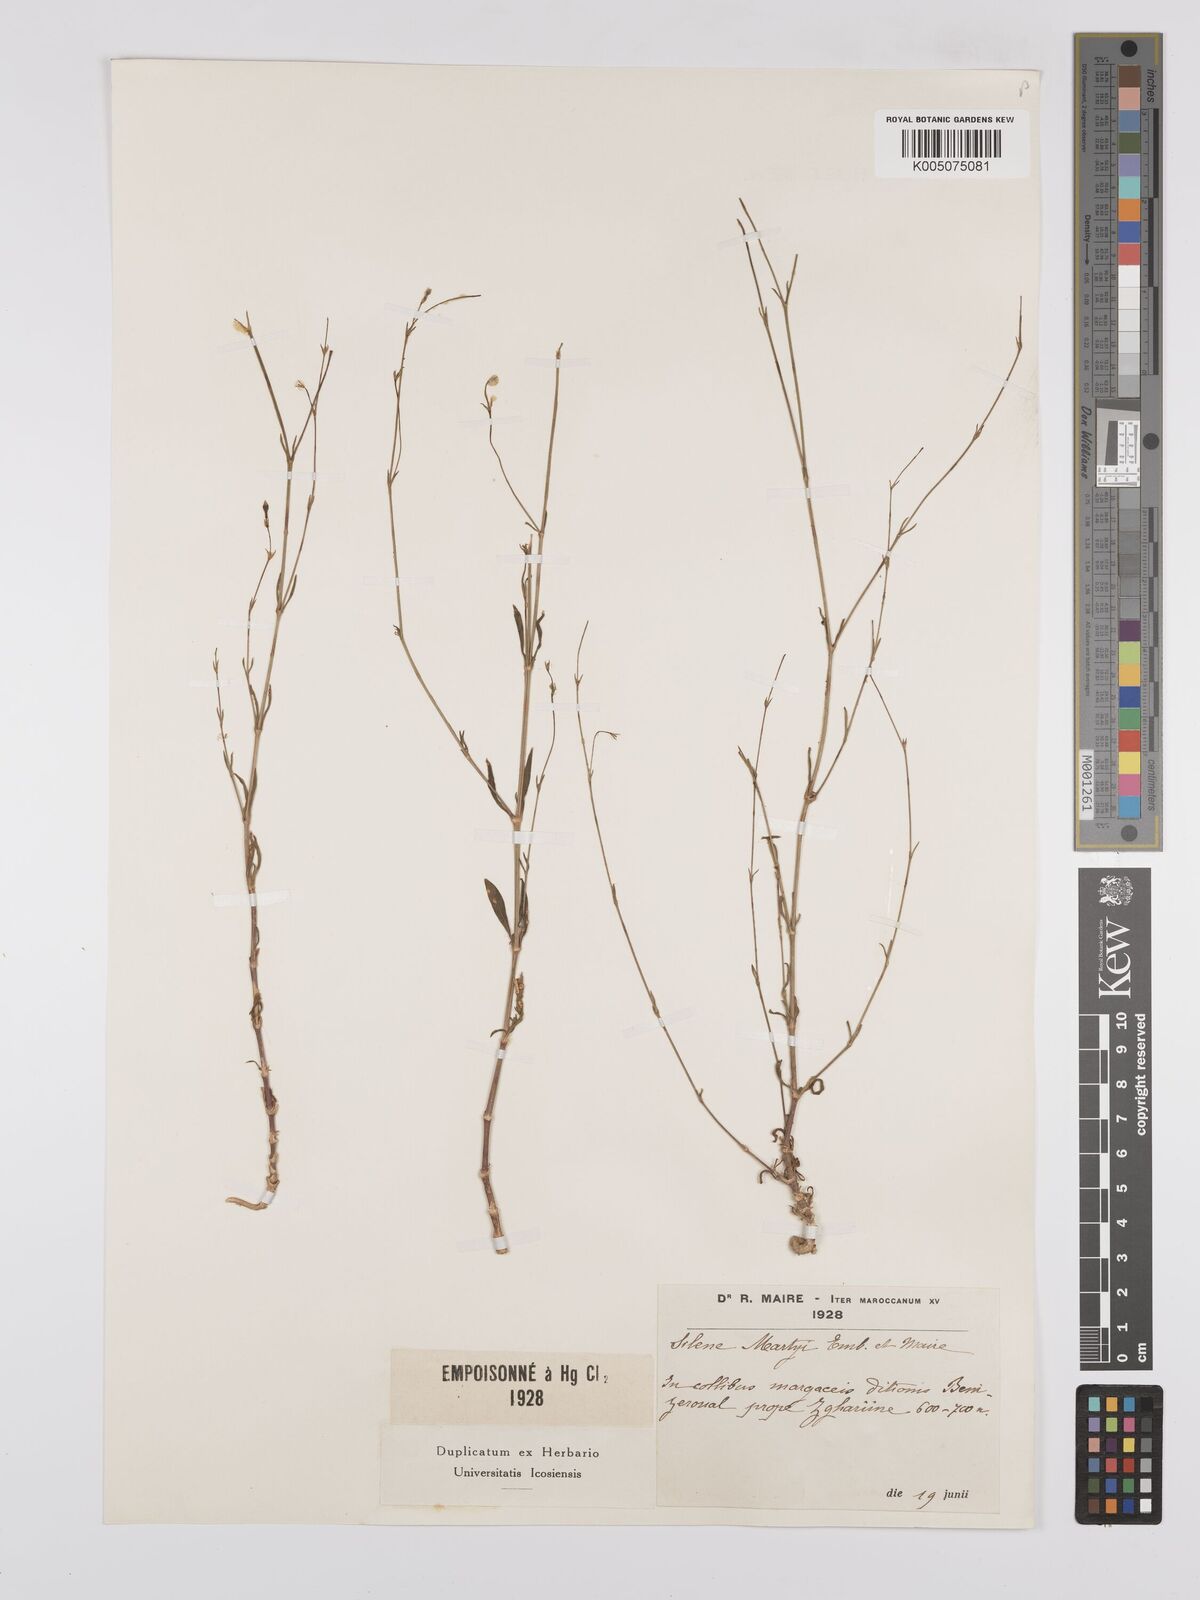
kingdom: Plantae
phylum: Tracheophyta
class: Magnoliopsida
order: Caryophyllales
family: Caryophyllaceae
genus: Silene
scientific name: Silene martyi
